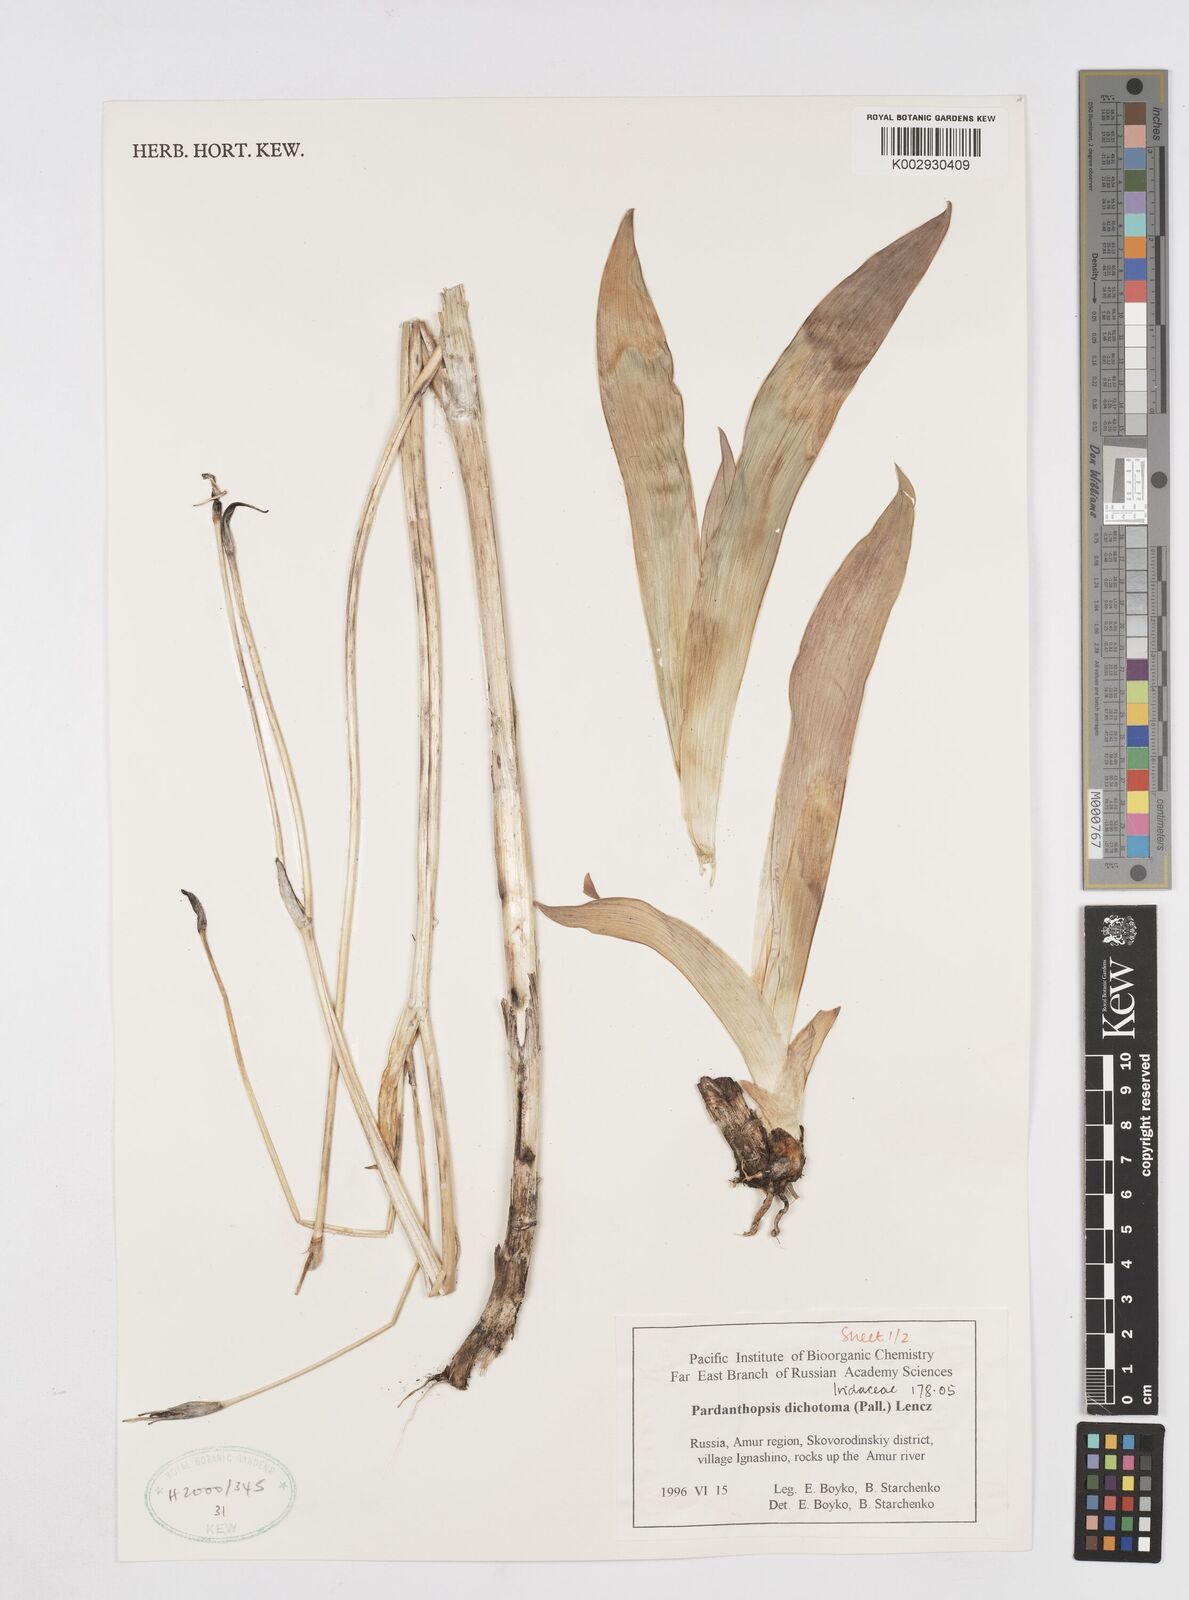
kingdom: Plantae
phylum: Tracheophyta
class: Liliopsida
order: Asparagales
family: Iridaceae
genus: Iris
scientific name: Iris dichotoma
